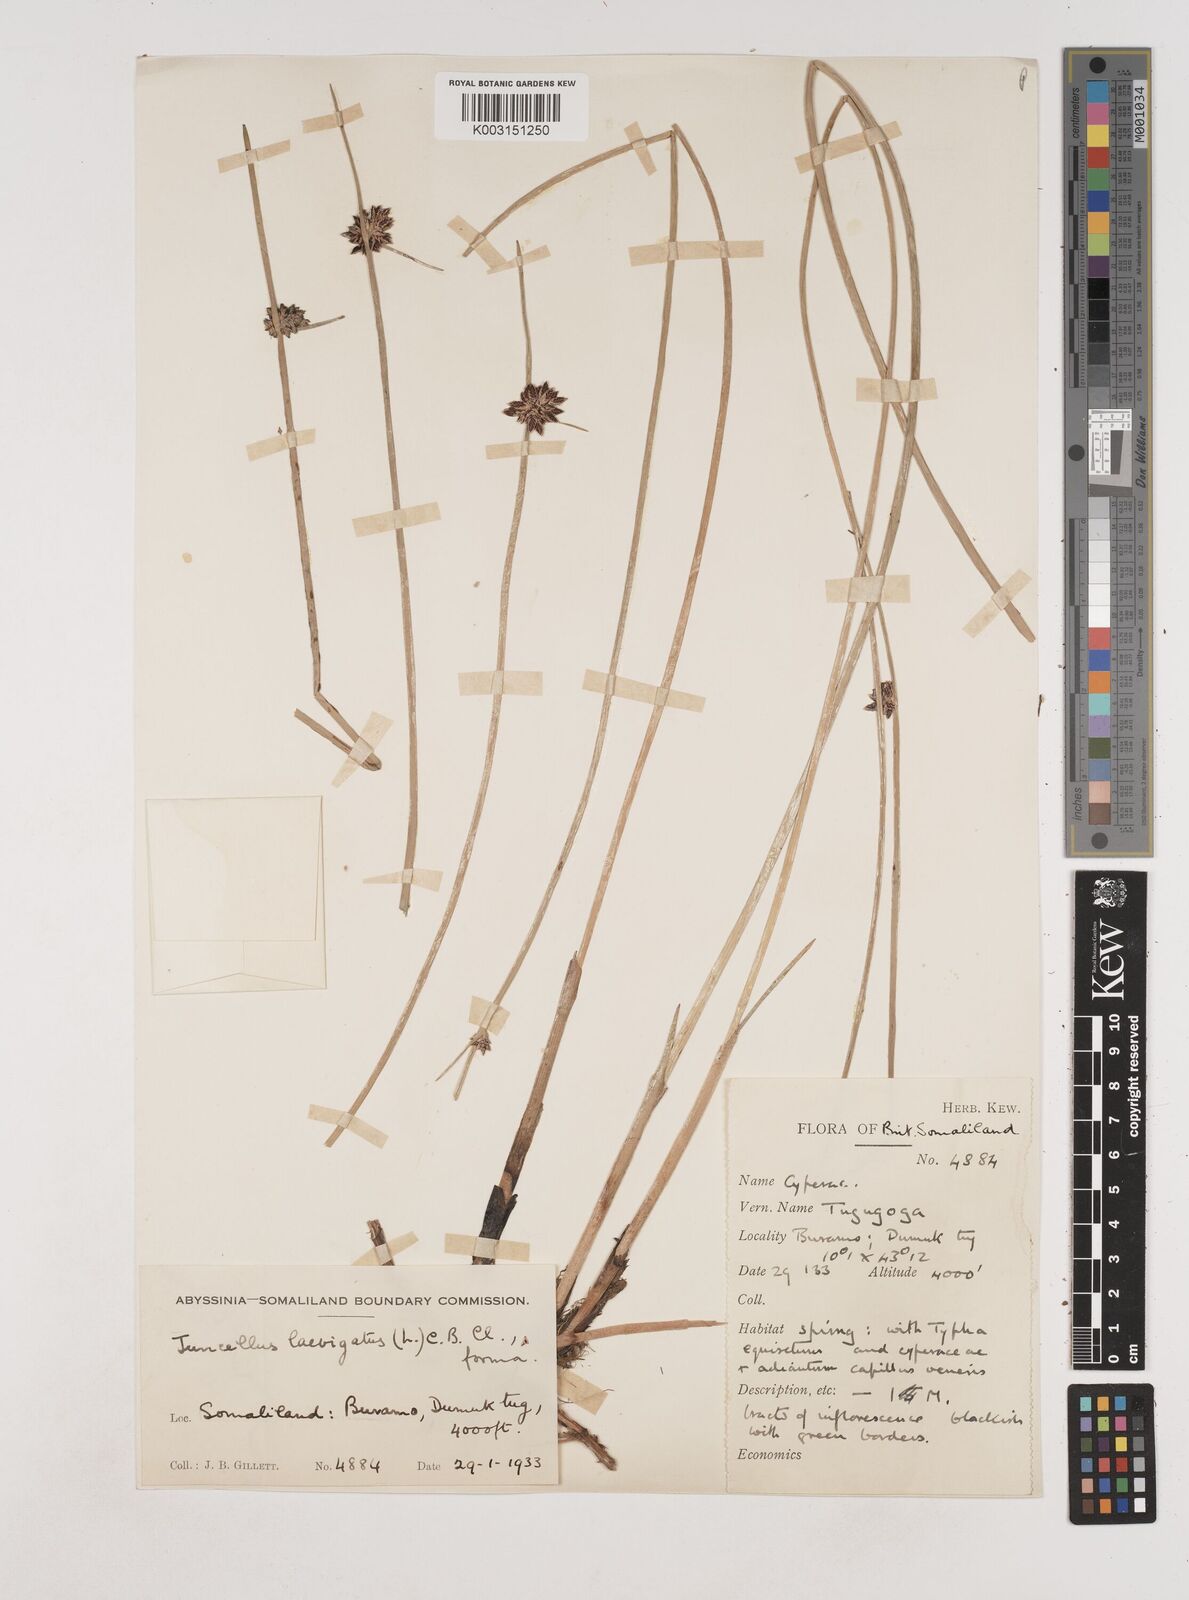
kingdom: Plantae
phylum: Tracheophyta
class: Liliopsida
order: Poales
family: Cyperaceae
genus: Cyperus
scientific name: Cyperus laevigatus
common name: Smooth flat sedge
